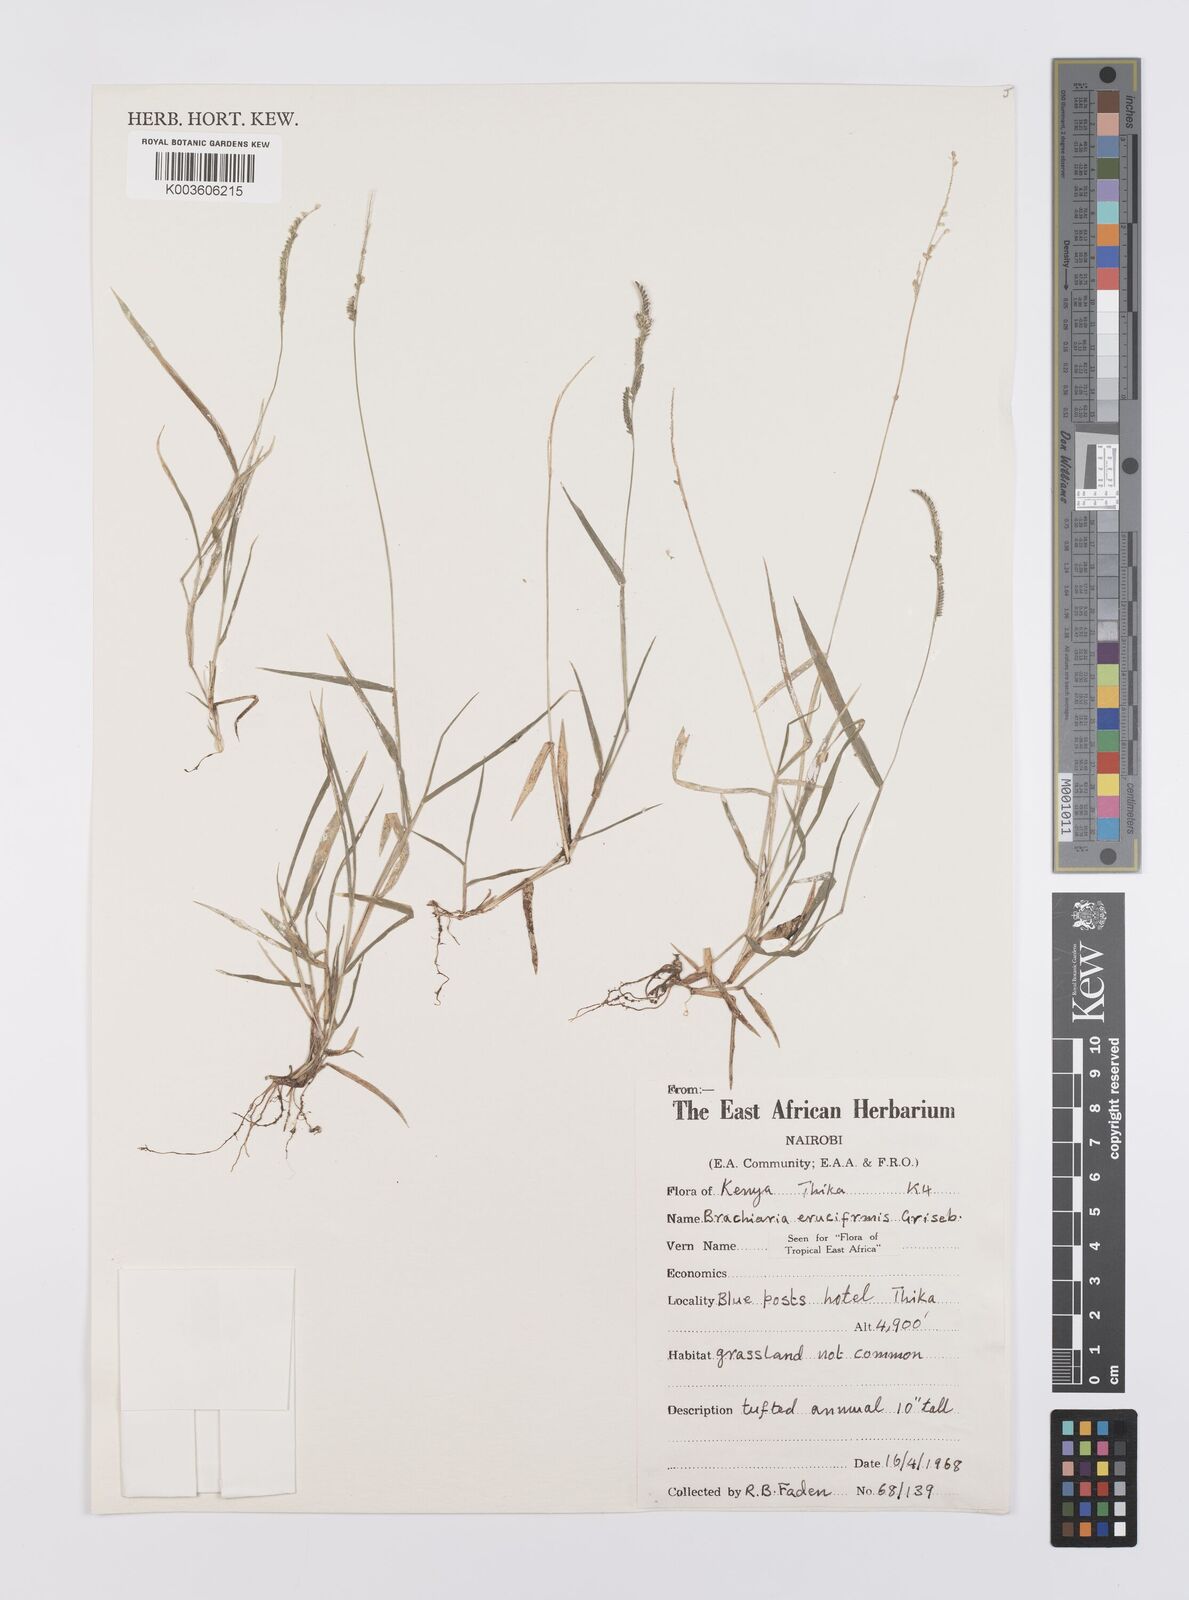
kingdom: Plantae
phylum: Tracheophyta
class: Liliopsida
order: Poales
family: Poaceae
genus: Moorochloa
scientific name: Moorochloa eruciformis
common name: Sweet signalgrass
